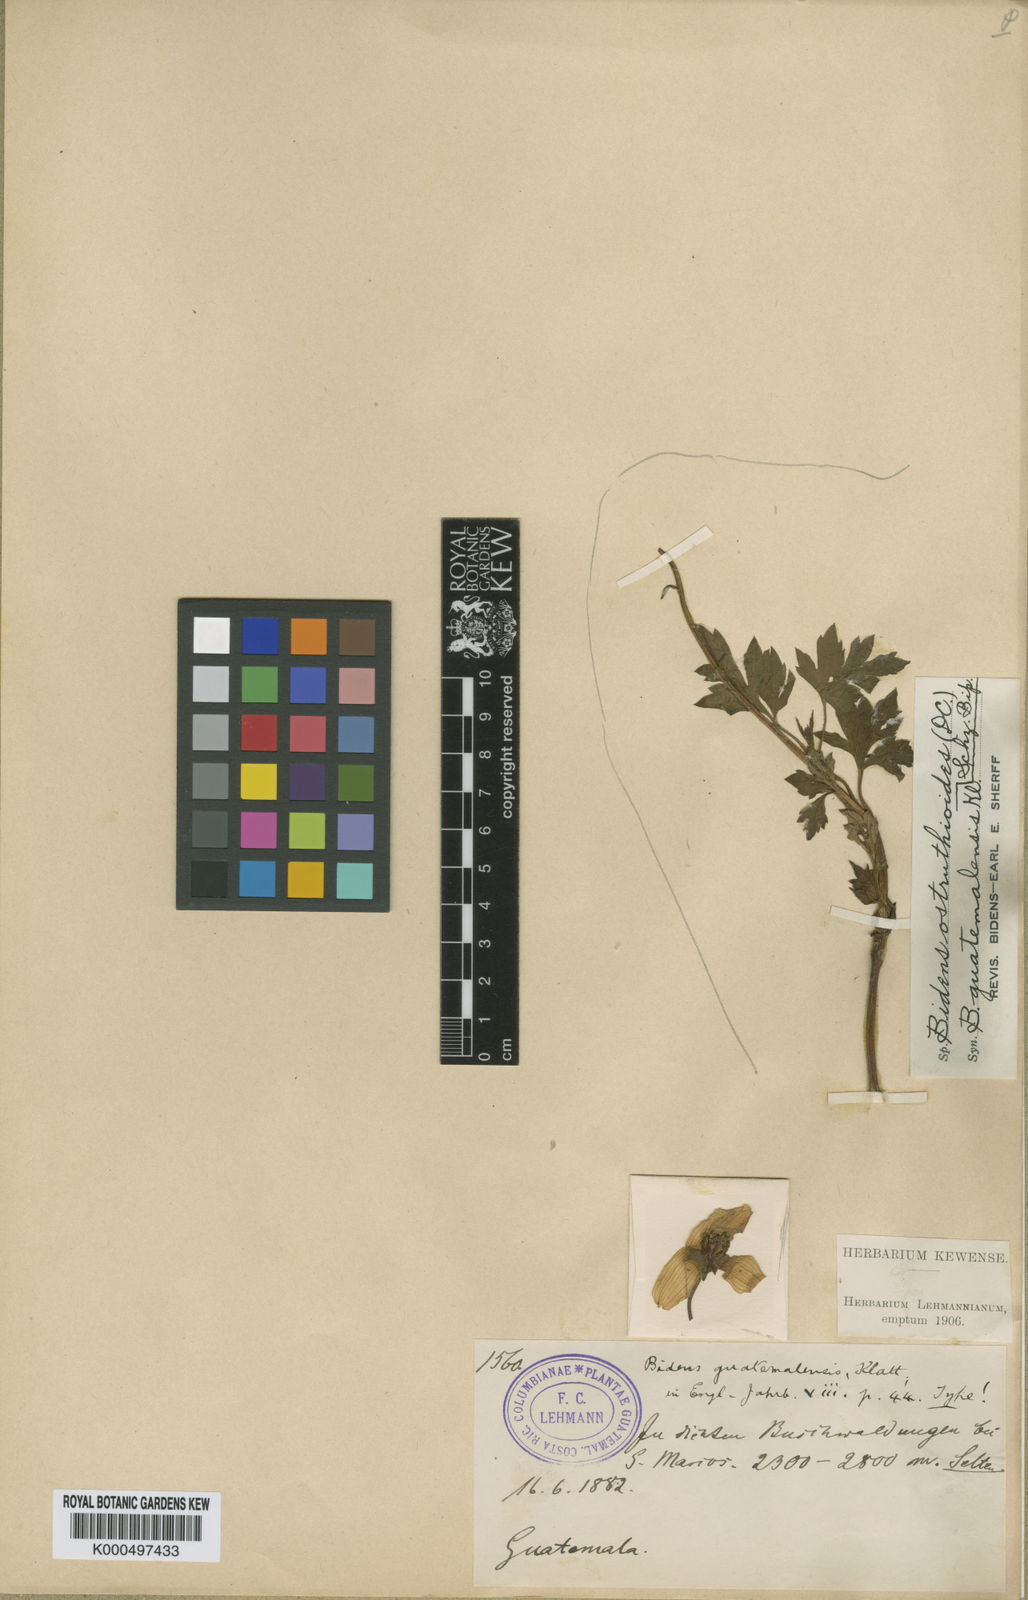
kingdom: Plantae
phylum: Tracheophyta
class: Magnoliopsida
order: Asterales
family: Asteraceae
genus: Bidens
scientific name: Bidens ostruthioides
